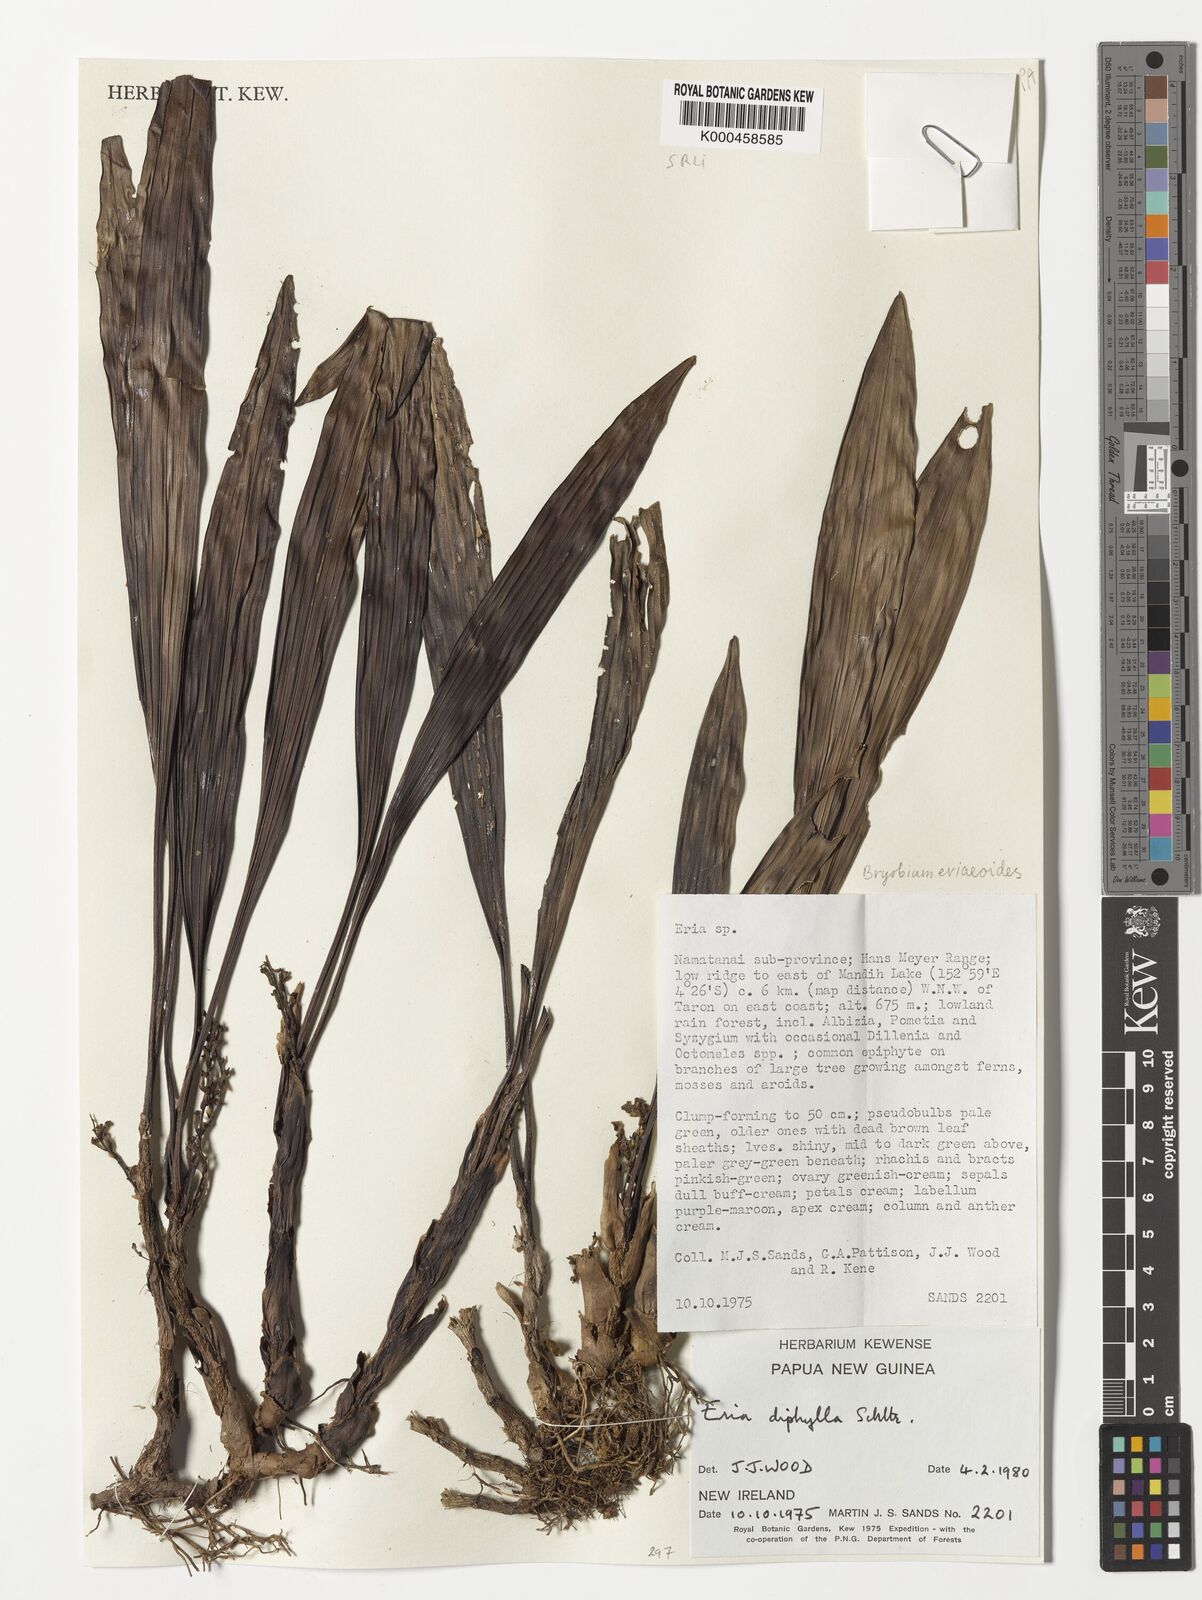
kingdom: Plantae
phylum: Tracheophyta
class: Liliopsida
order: Asparagales
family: Orchidaceae
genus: Bryobium
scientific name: Bryobium eriaeoides
